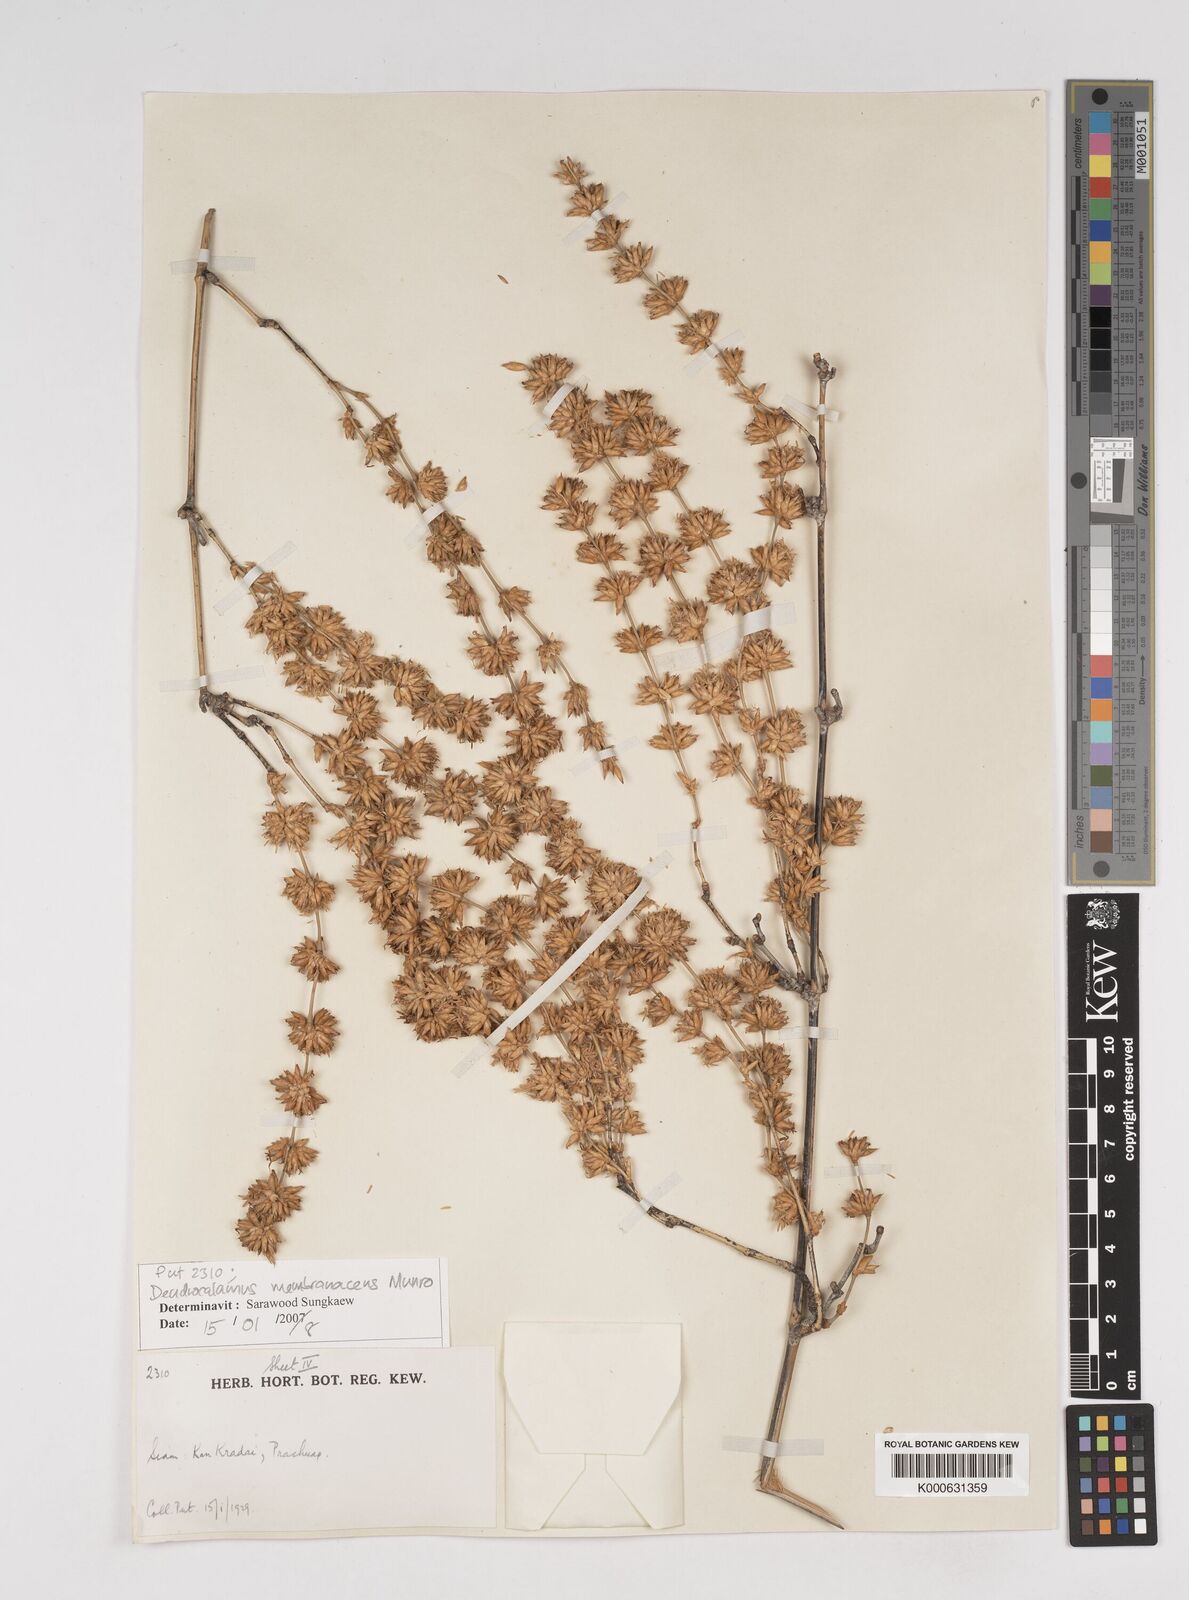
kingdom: Plantae
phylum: Tracheophyta
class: Liliopsida
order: Poales
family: Poaceae
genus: Dendrocalamus
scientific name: Dendrocalamus membranaceus
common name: White bamboo
